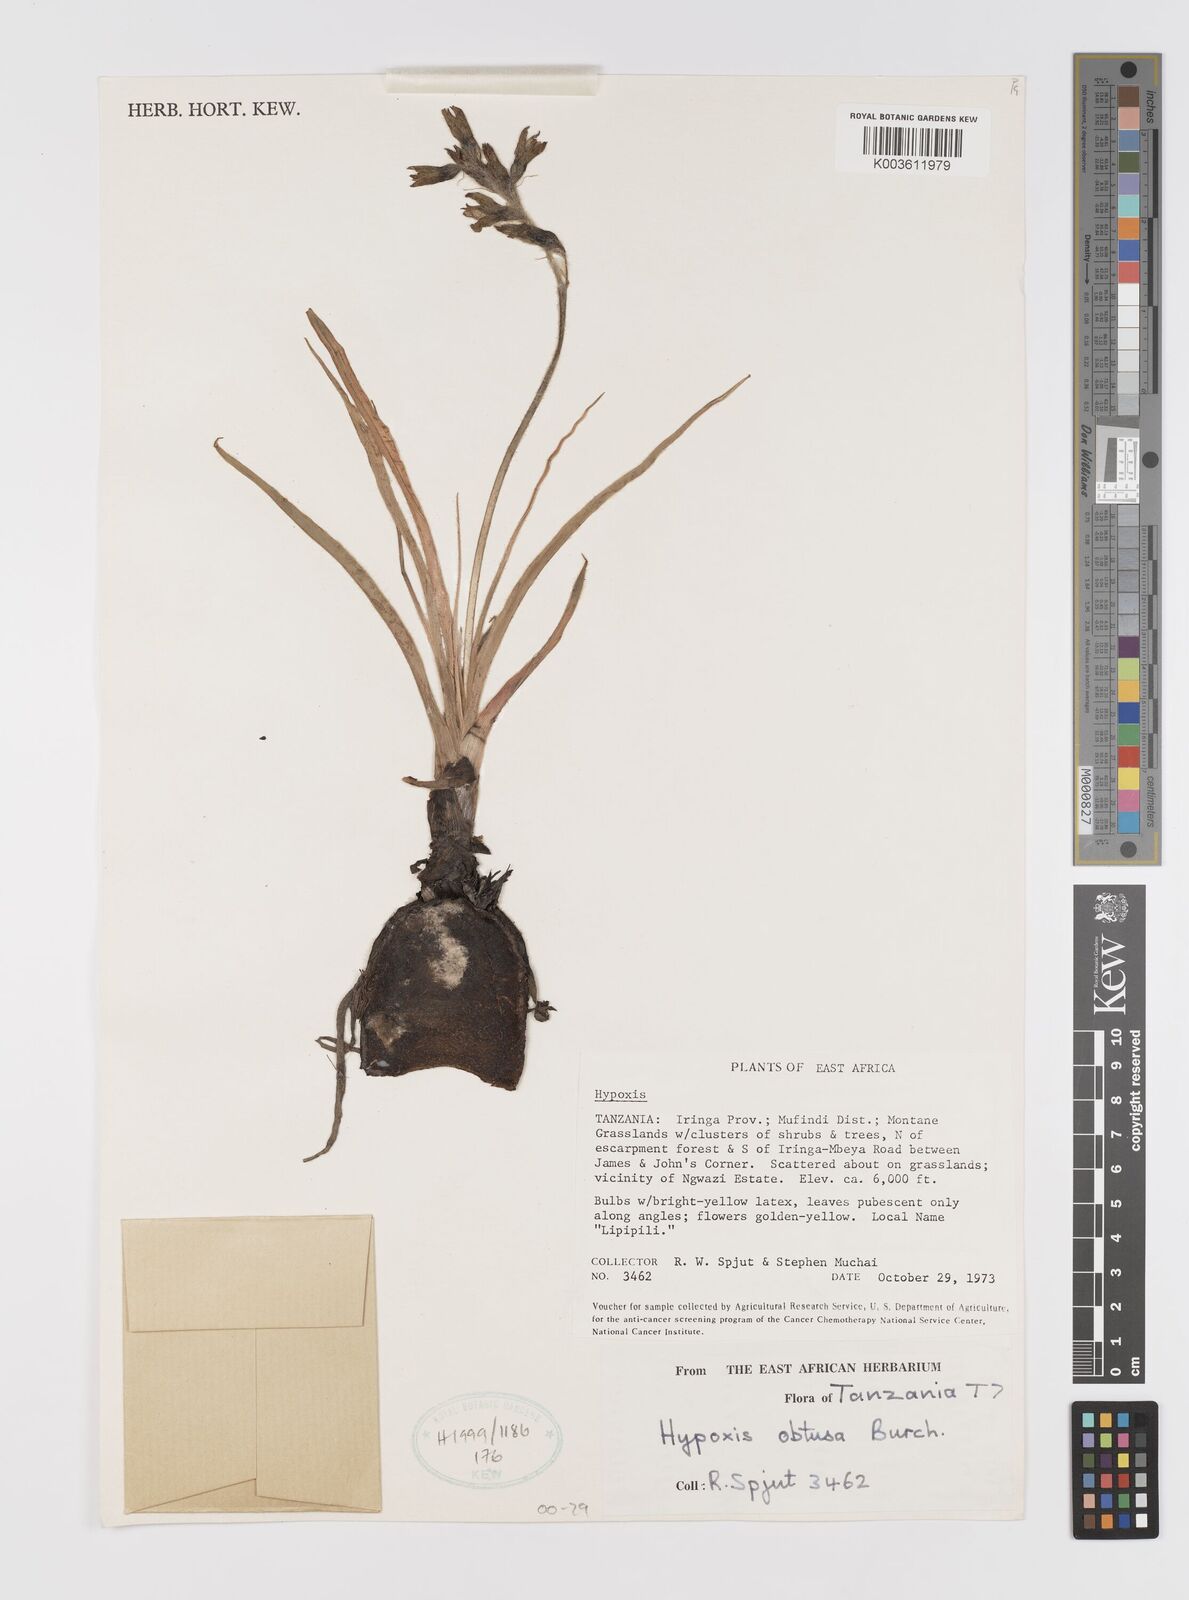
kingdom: Plantae
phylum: Tracheophyta
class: Liliopsida
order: Asparagales
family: Hypoxidaceae
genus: Hypoxis
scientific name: Hypoxis obtusa
